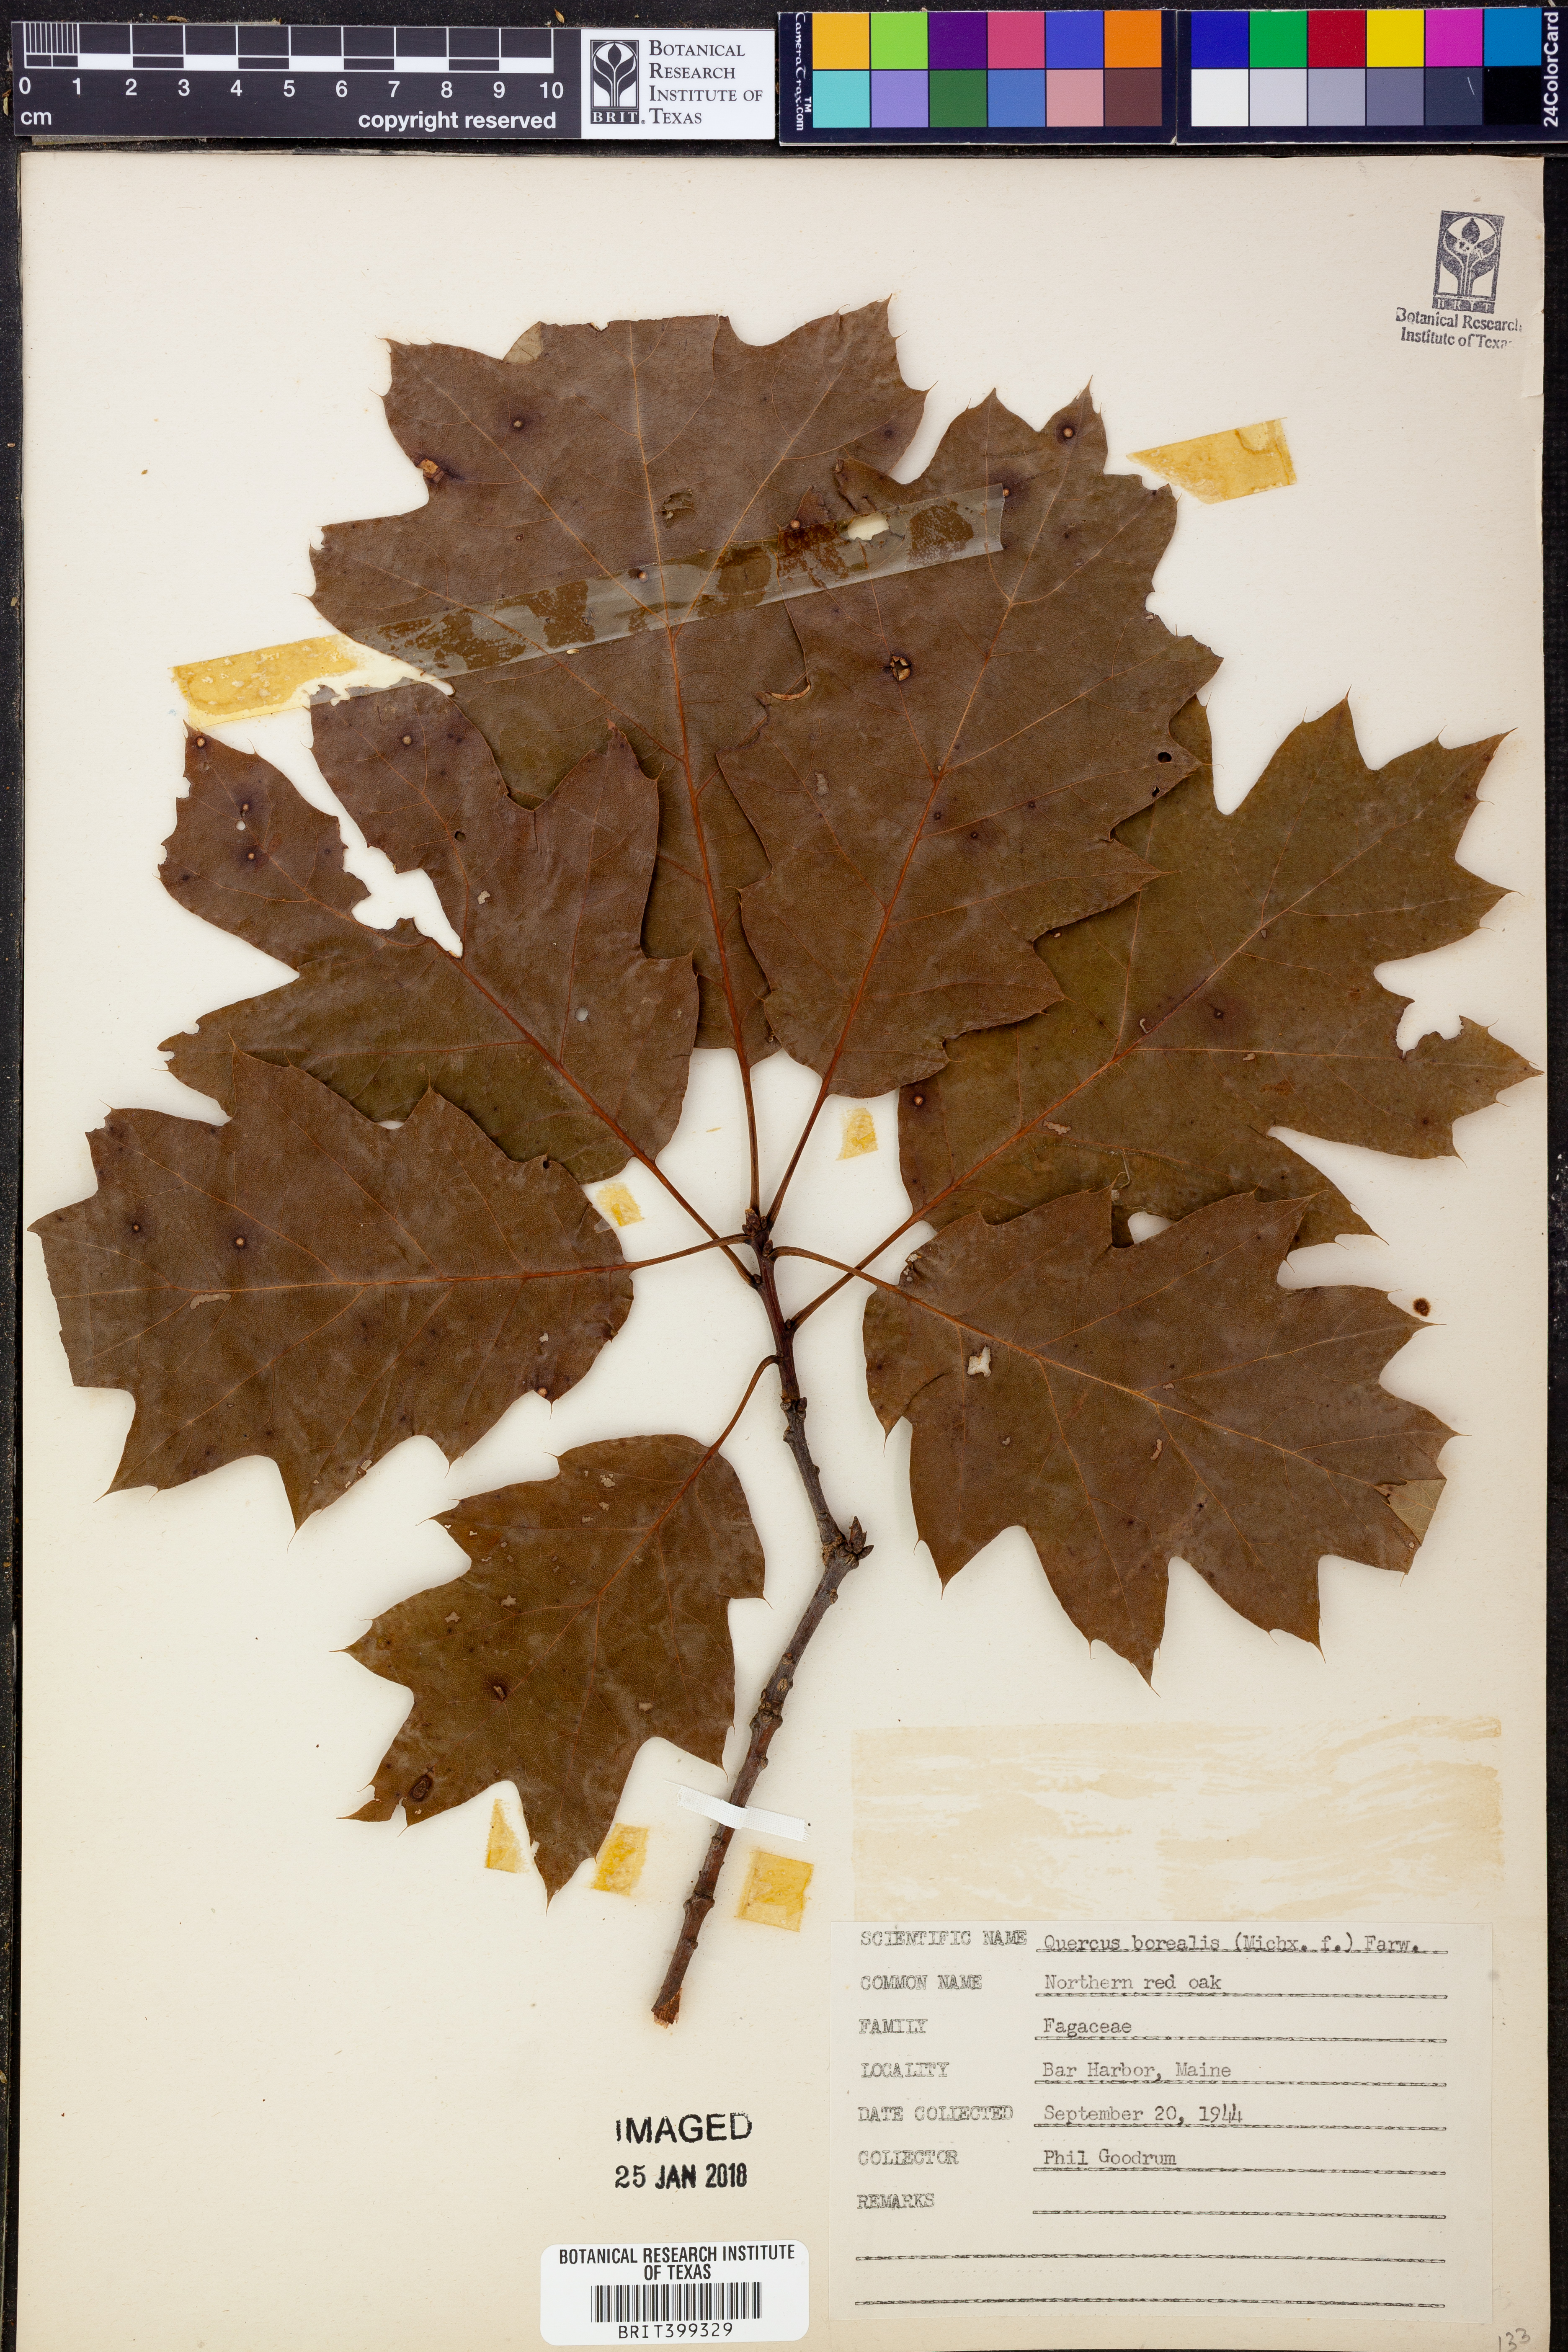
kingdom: Plantae
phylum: Tracheophyta
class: Magnoliopsida
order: Fagales
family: Fagaceae
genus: Quercus
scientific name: Quercus rubra
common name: Red oak
